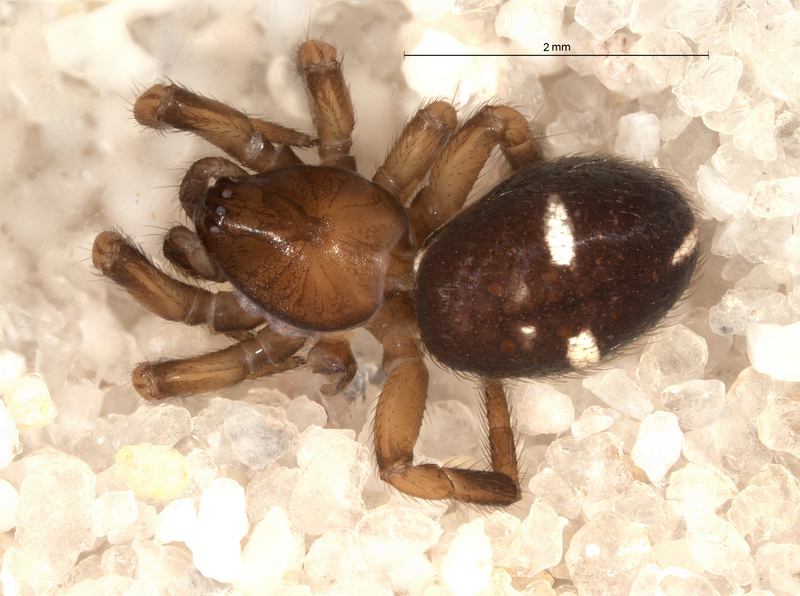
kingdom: Animalia
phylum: Arthropoda
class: Arachnida
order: Araneae
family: Theridiidae
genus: Asagena
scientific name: Asagena phalerata
